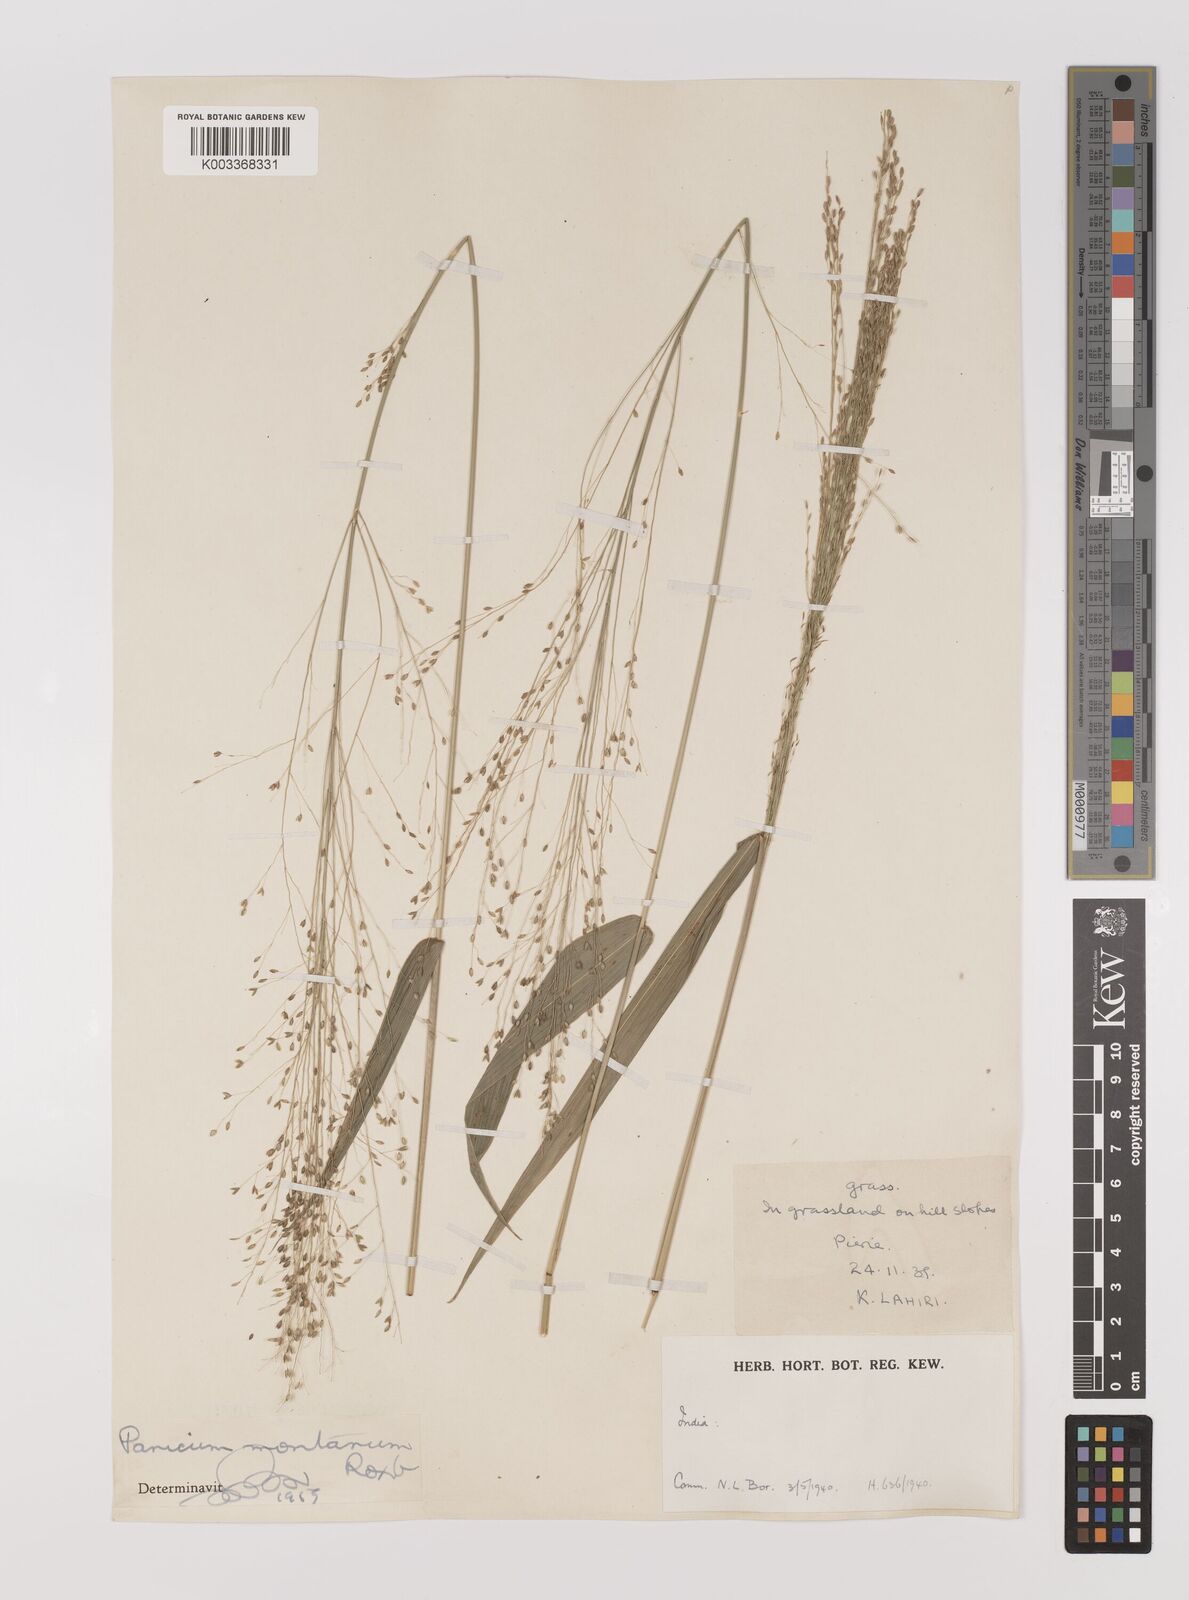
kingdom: Plantae
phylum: Tracheophyta
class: Liliopsida
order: Poales
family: Poaceae
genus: Panicum
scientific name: Panicum notatum
